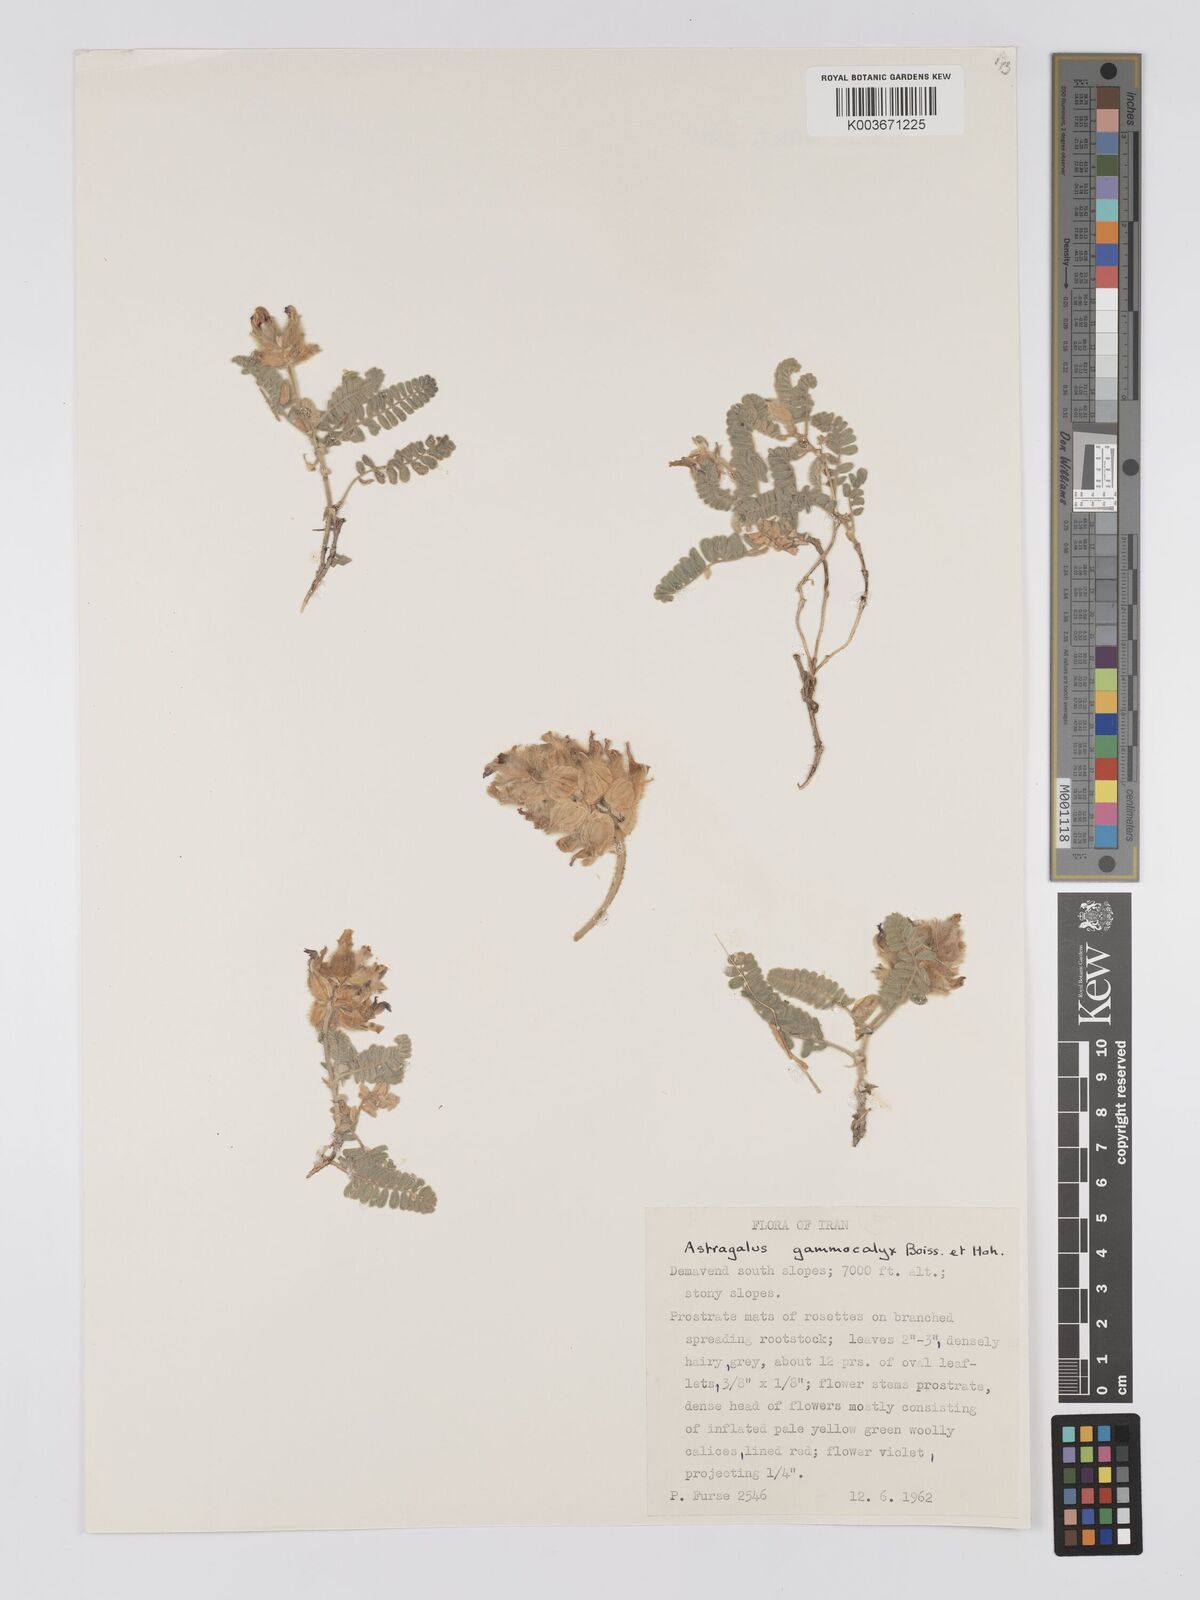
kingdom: Plantae
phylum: Tracheophyta
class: Magnoliopsida
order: Fabales
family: Fabaceae
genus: Astragalus
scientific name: Astragalus lineatus
